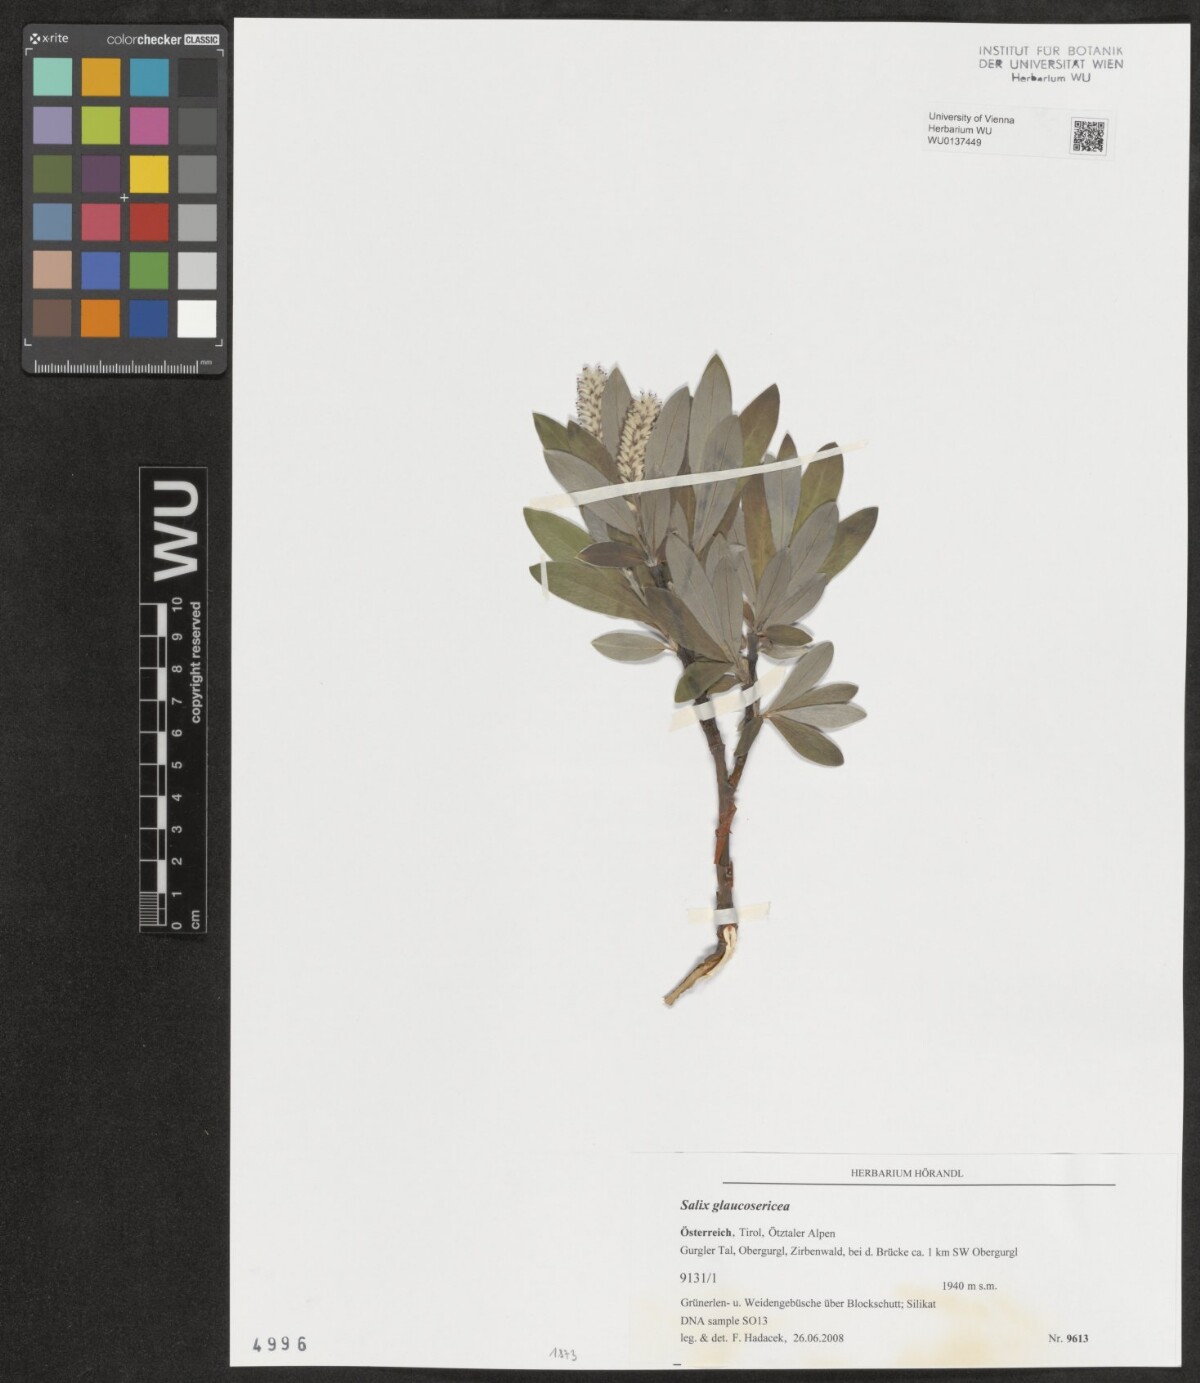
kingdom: Plantae
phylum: Tracheophyta
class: Magnoliopsida
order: Malpighiales
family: Salicaceae
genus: Salix
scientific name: Salix glaucosericea
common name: Alpine gray willow
